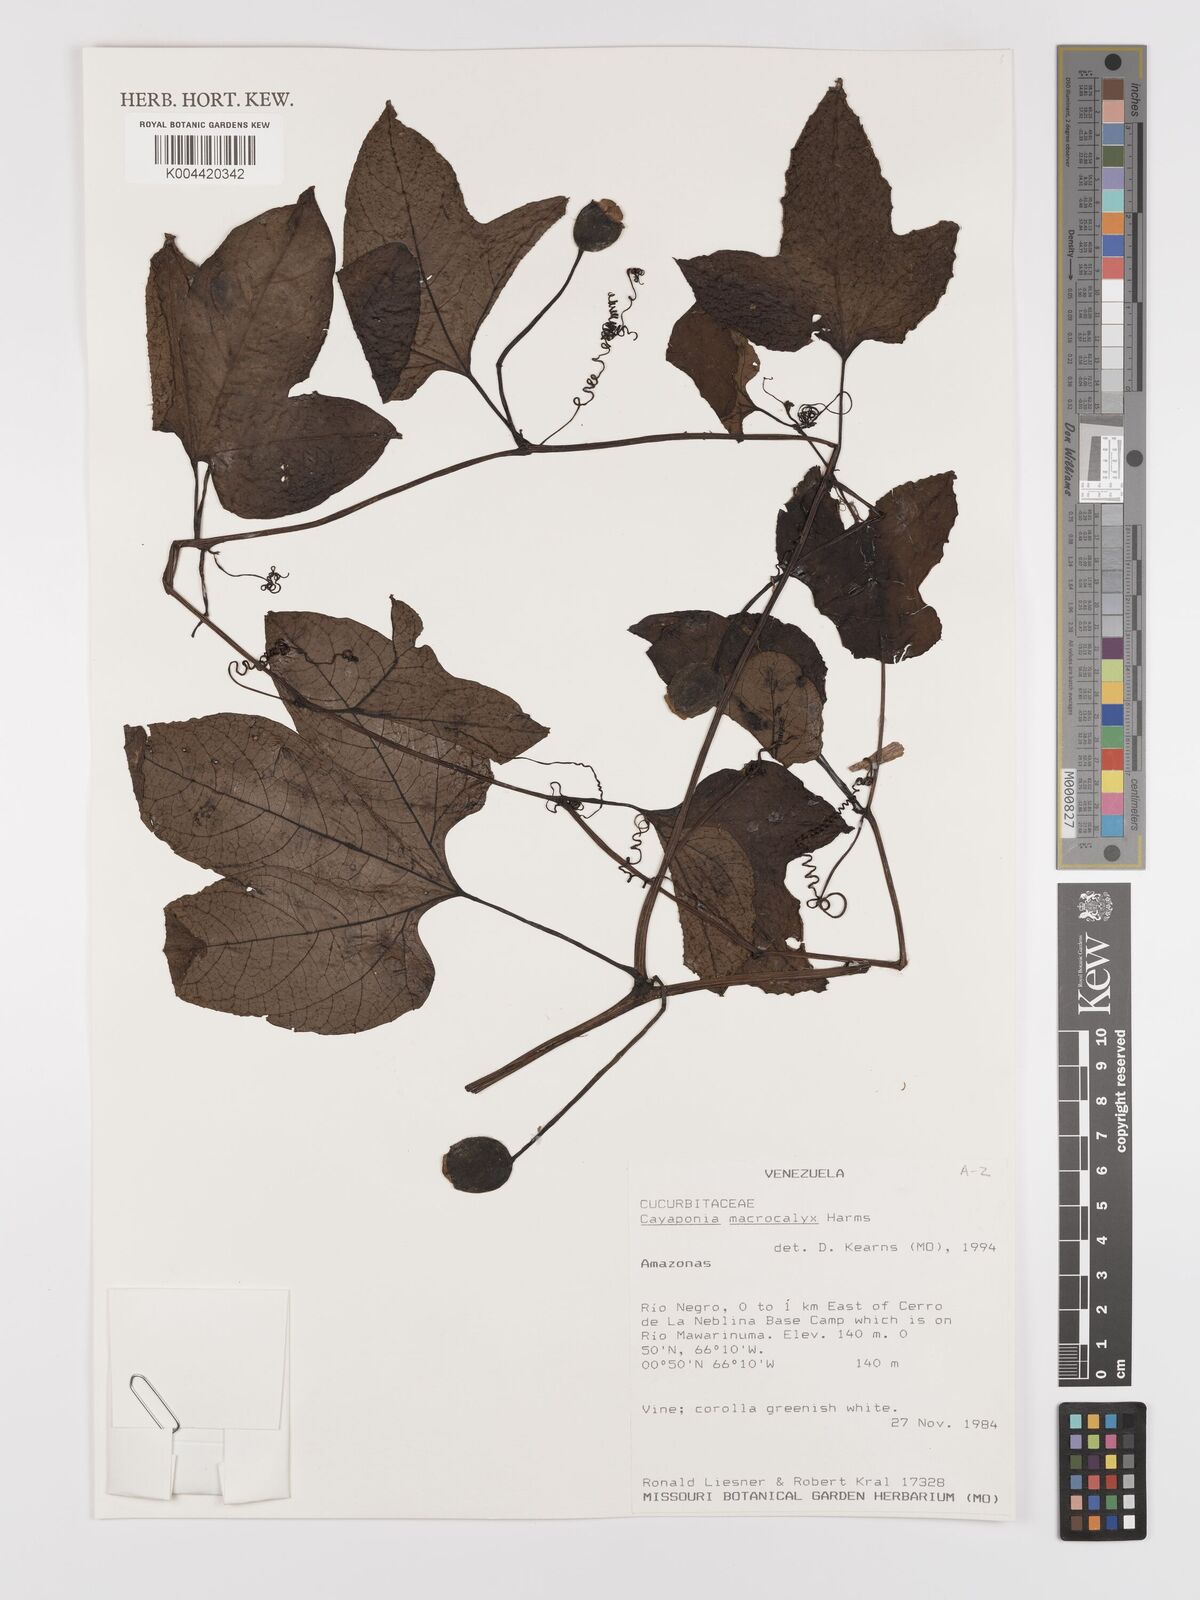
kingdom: Plantae
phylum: Tracheophyta
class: Magnoliopsida
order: Cucurbitales
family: Cucurbitaceae
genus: Cayaponia
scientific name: Cayaponia macrocalyx
